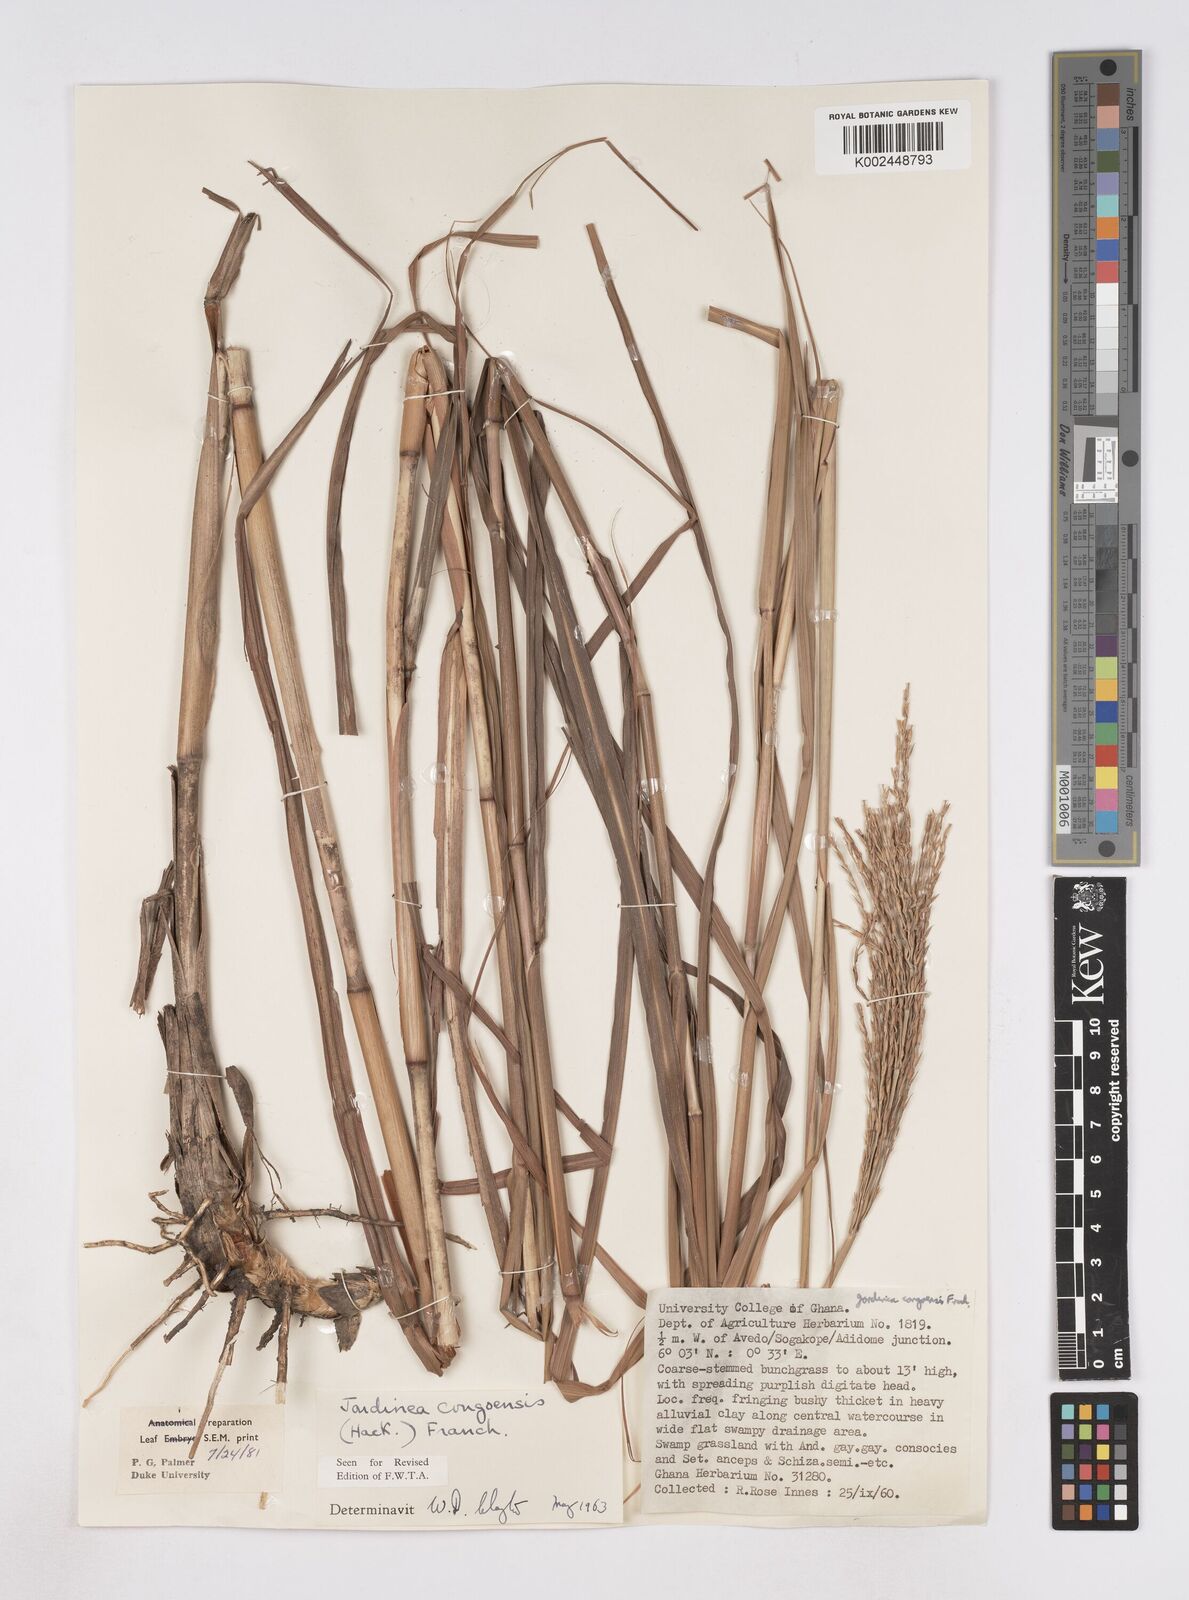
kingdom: Plantae
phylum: Tracheophyta
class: Liliopsida
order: Poales
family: Poaceae
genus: Phacelurus
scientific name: Phacelurus gabonensis
